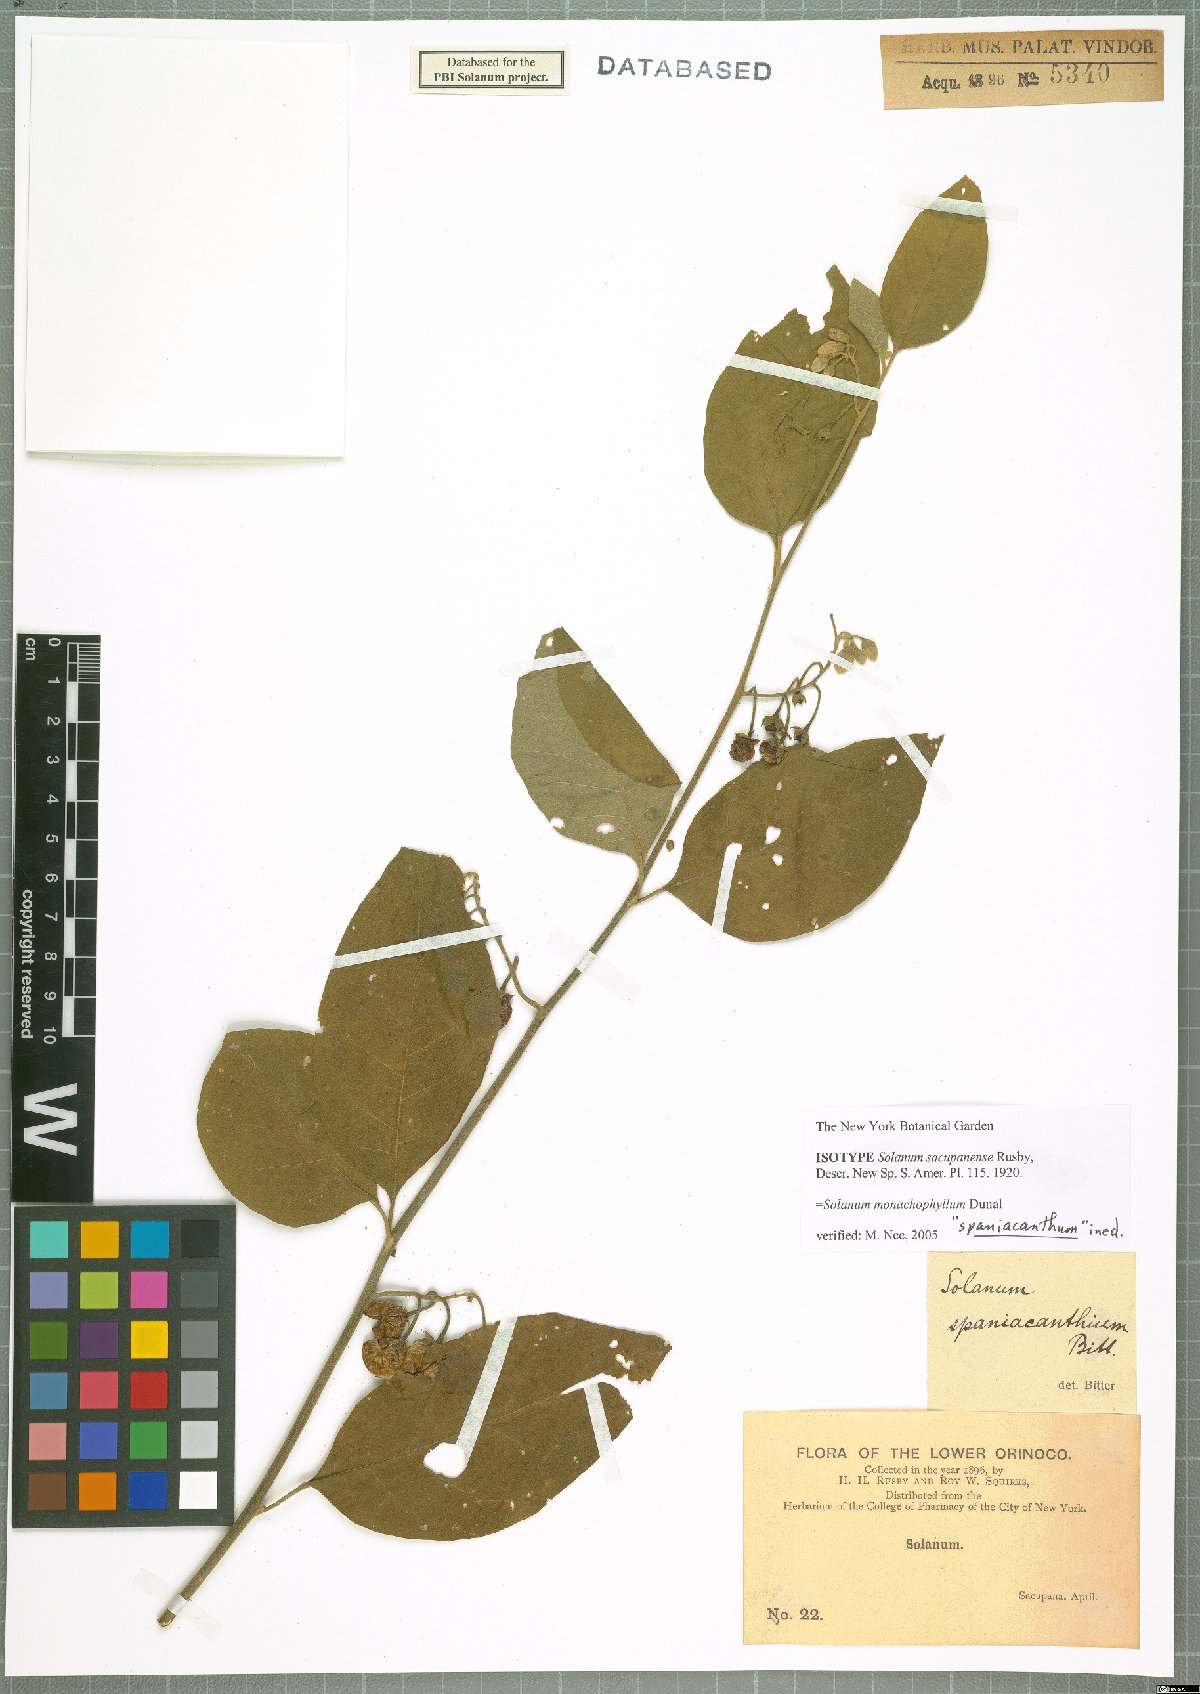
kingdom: Plantae
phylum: Tracheophyta
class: Magnoliopsida
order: Solanales
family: Solanaceae
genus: Solanum
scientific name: Solanum monachophyllum
